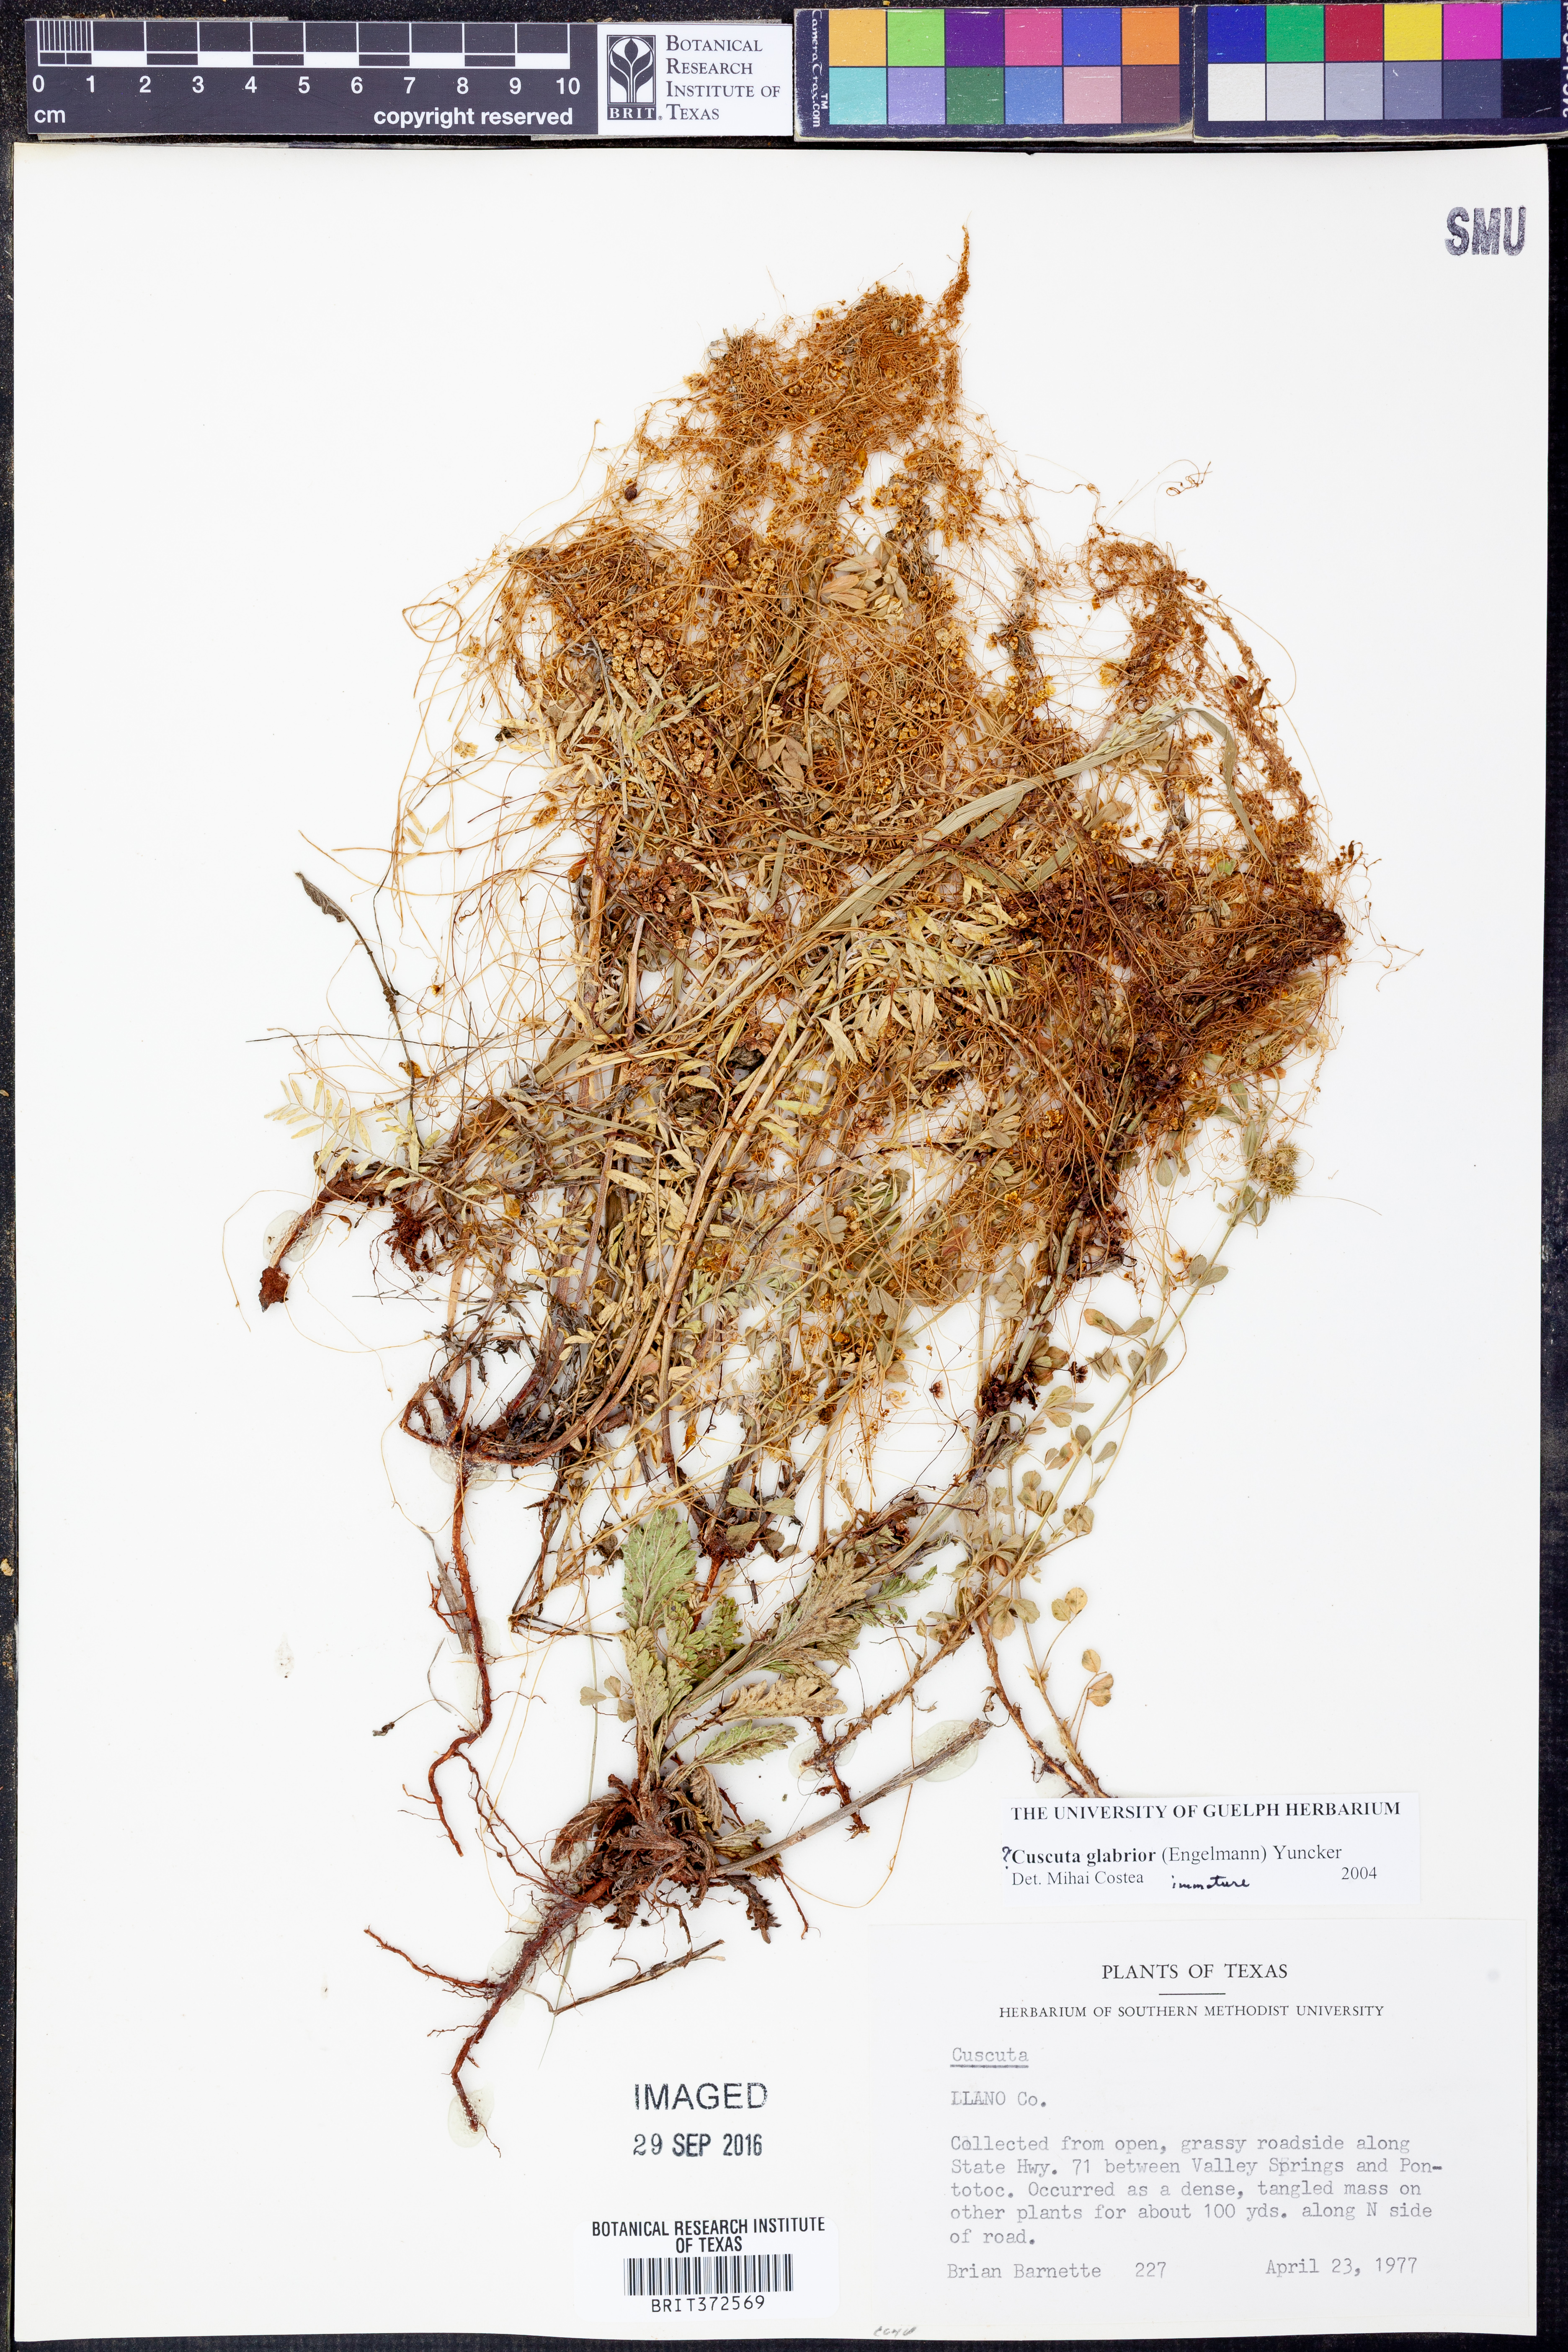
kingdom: Plantae
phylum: Tracheophyta
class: Magnoliopsida
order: Solanales
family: Convolvulaceae
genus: Cuscuta
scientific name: Cuscuta glabrior
